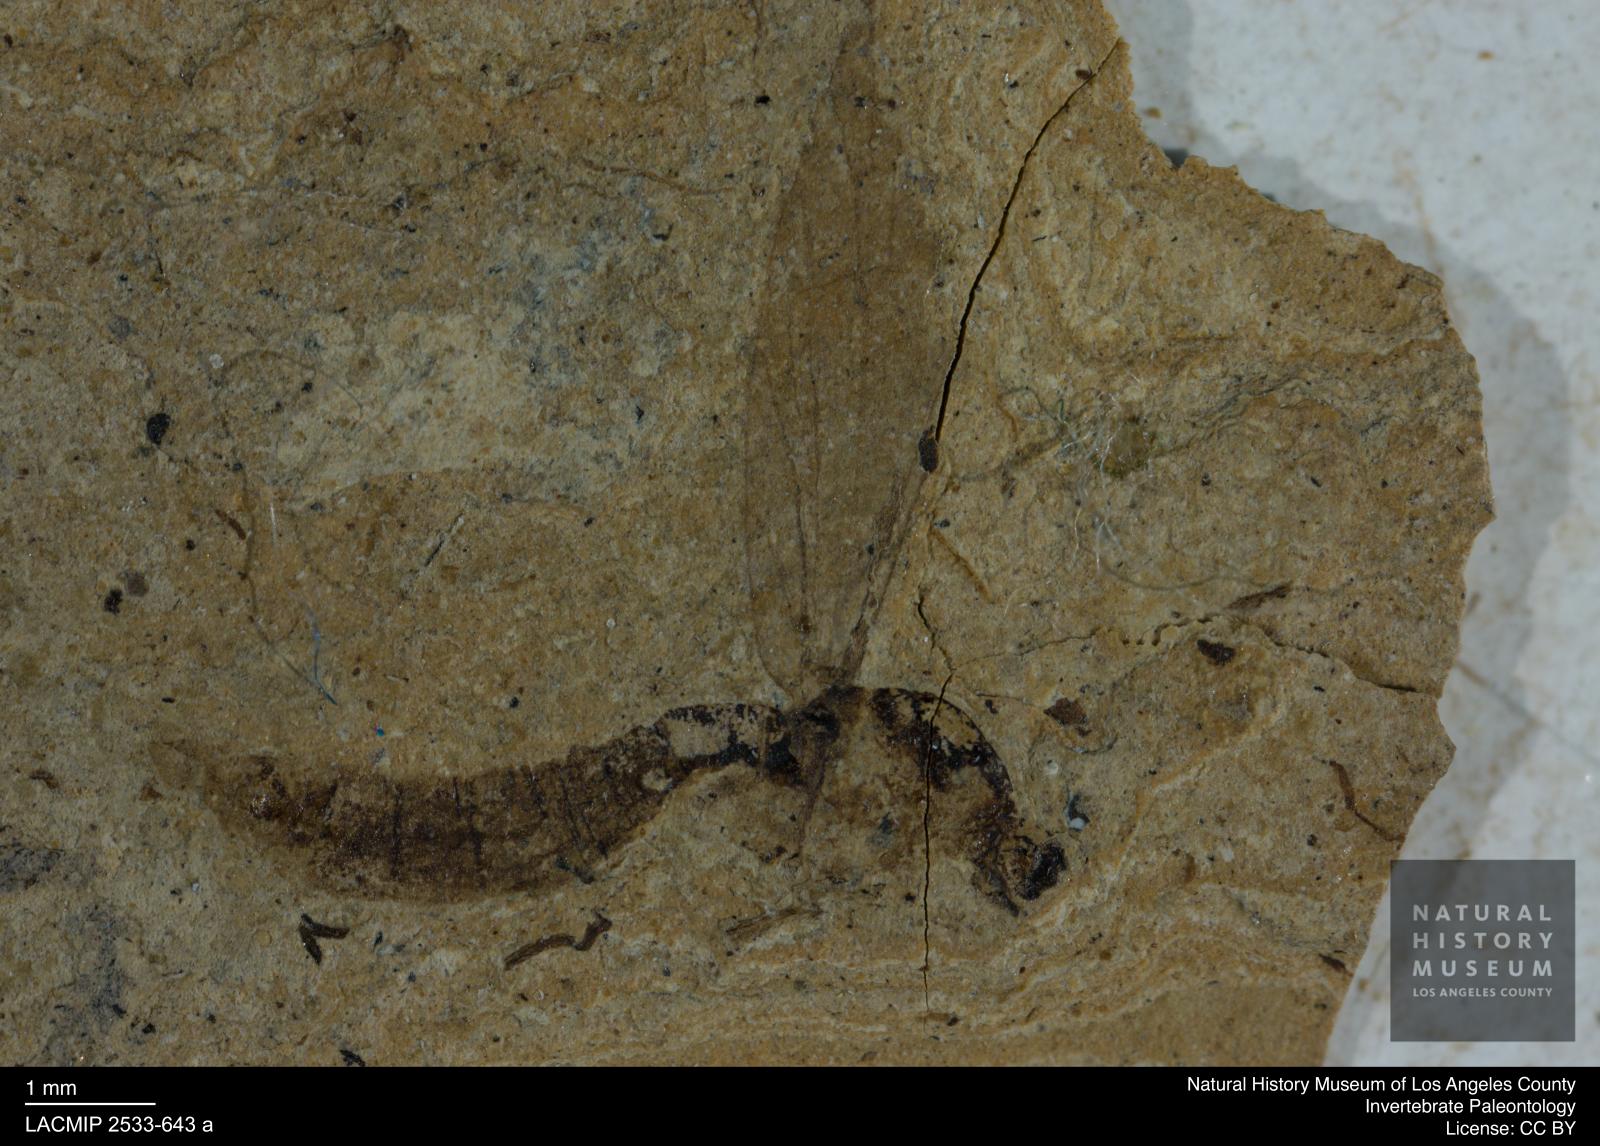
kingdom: Animalia
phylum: Arthropoda
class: Insecta
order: Diptera
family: Limoniidae
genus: Limonia
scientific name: Limonia antiqua
